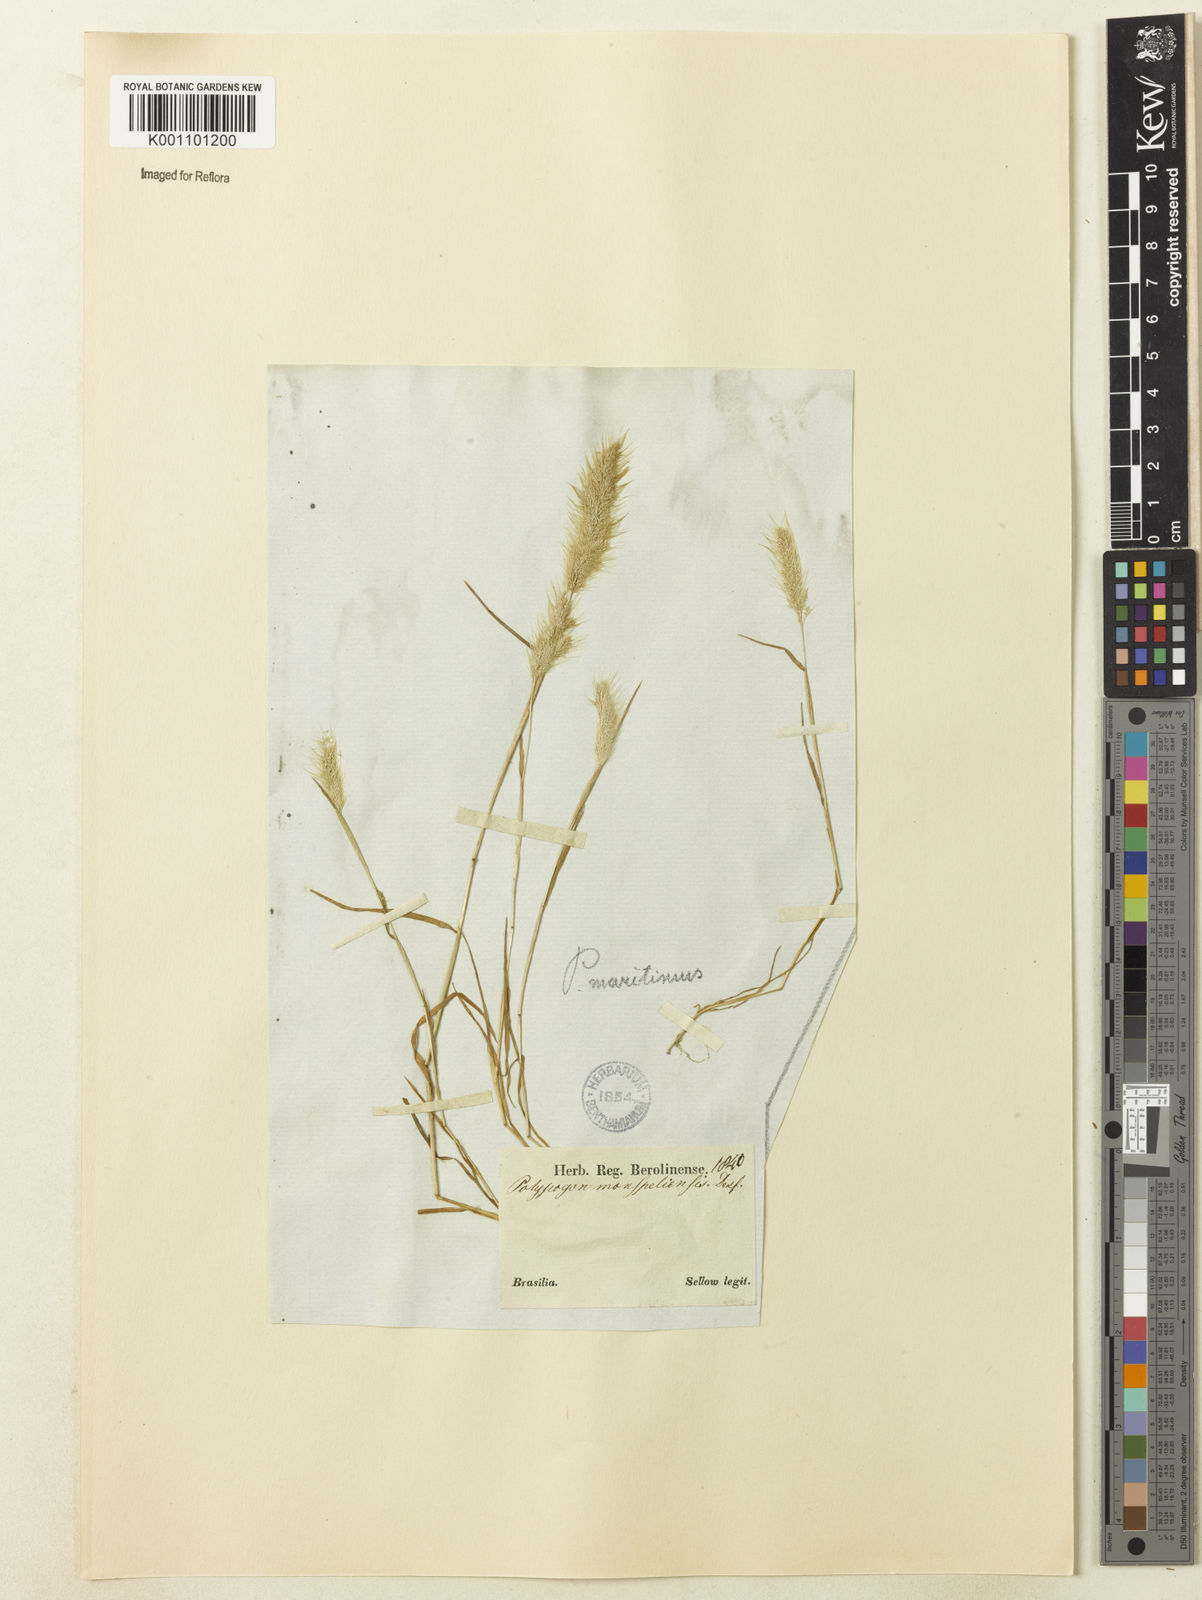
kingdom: Plantae
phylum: Tracheophyta
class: Liliopsida
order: Poales
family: Poaceae
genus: Polypogon
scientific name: Polypogon maritimus
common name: Mediterranean rabbitsfoot grass
